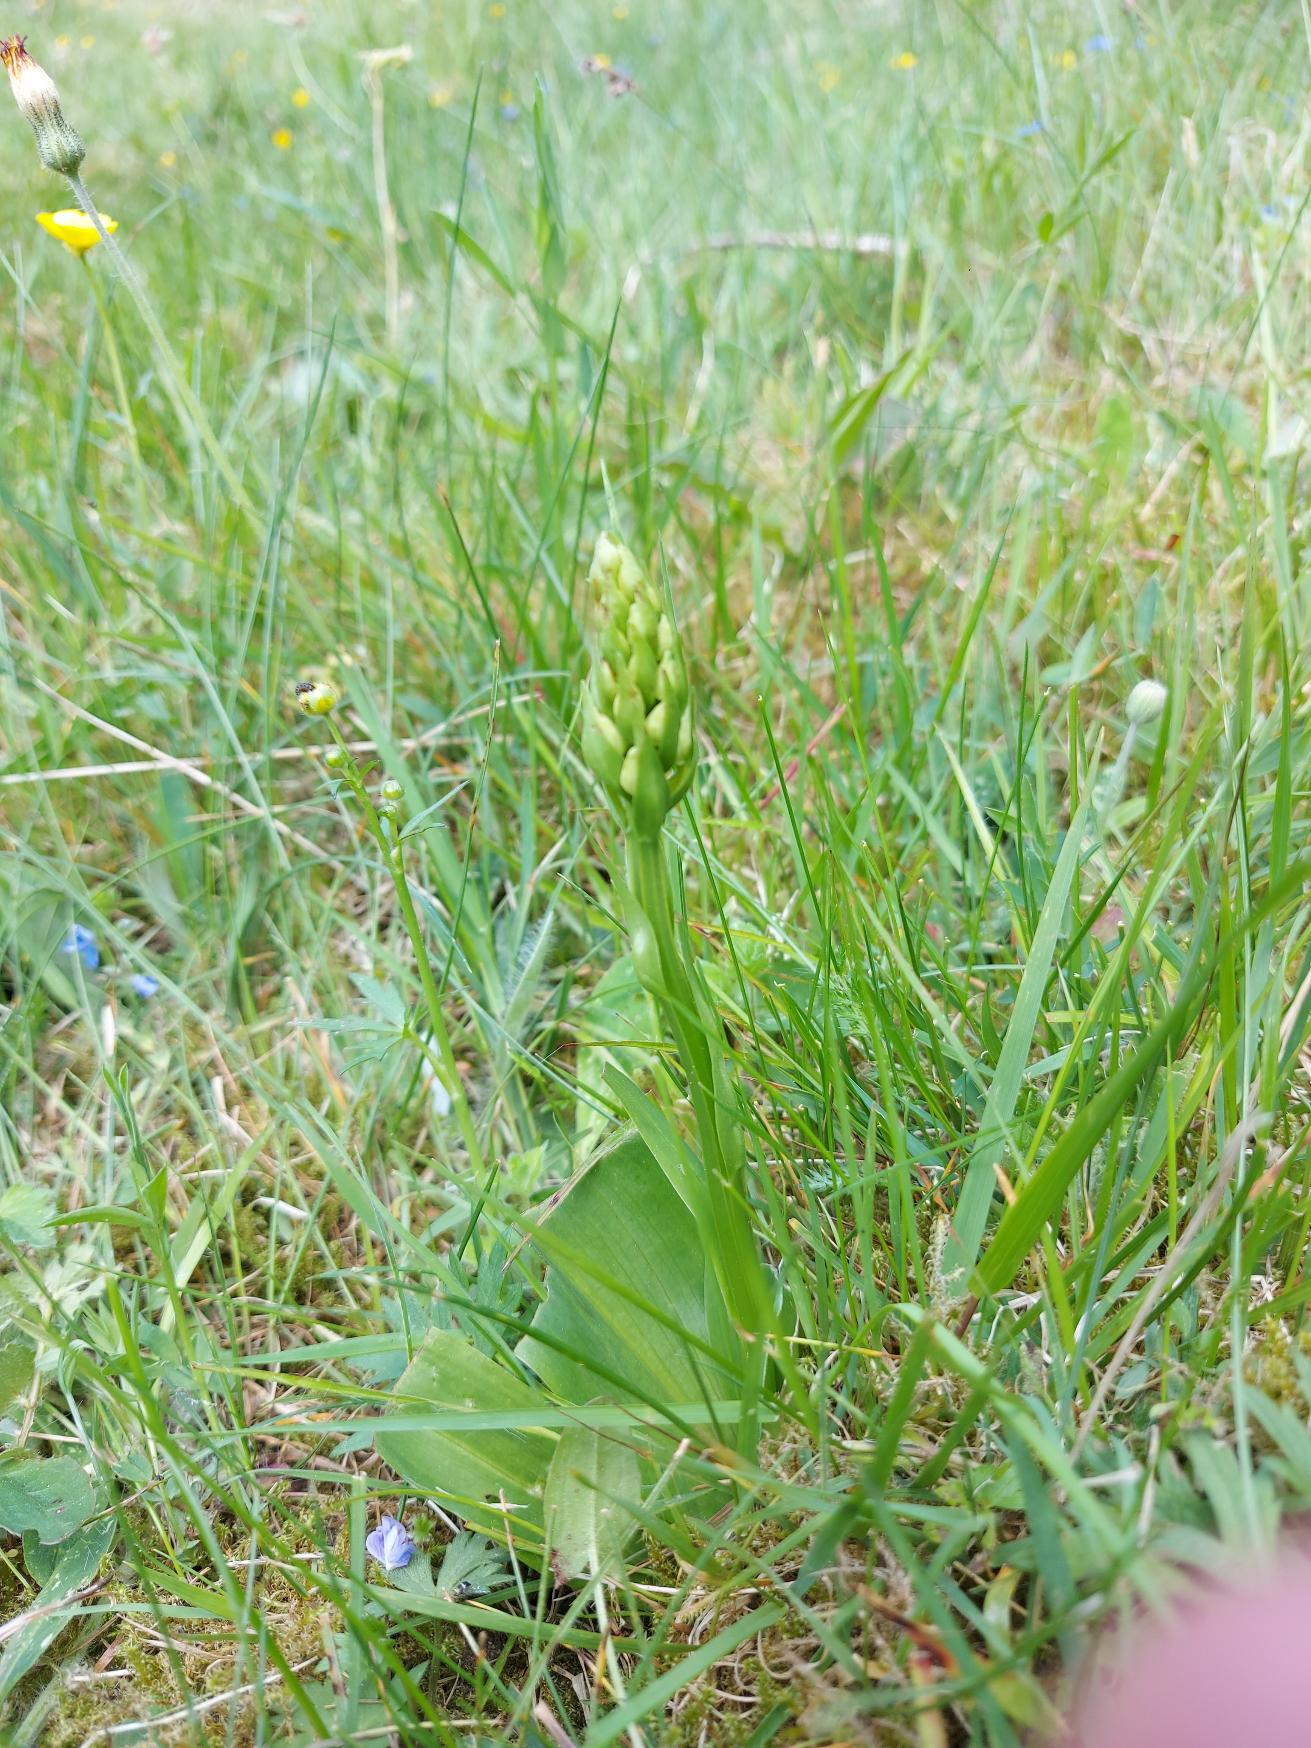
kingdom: Plantae
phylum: Tracheophyta
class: Liliopsida
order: Asparagales
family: Orchidaceae
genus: Platanthera
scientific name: Platanthera
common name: Gøgeliljeslægten
